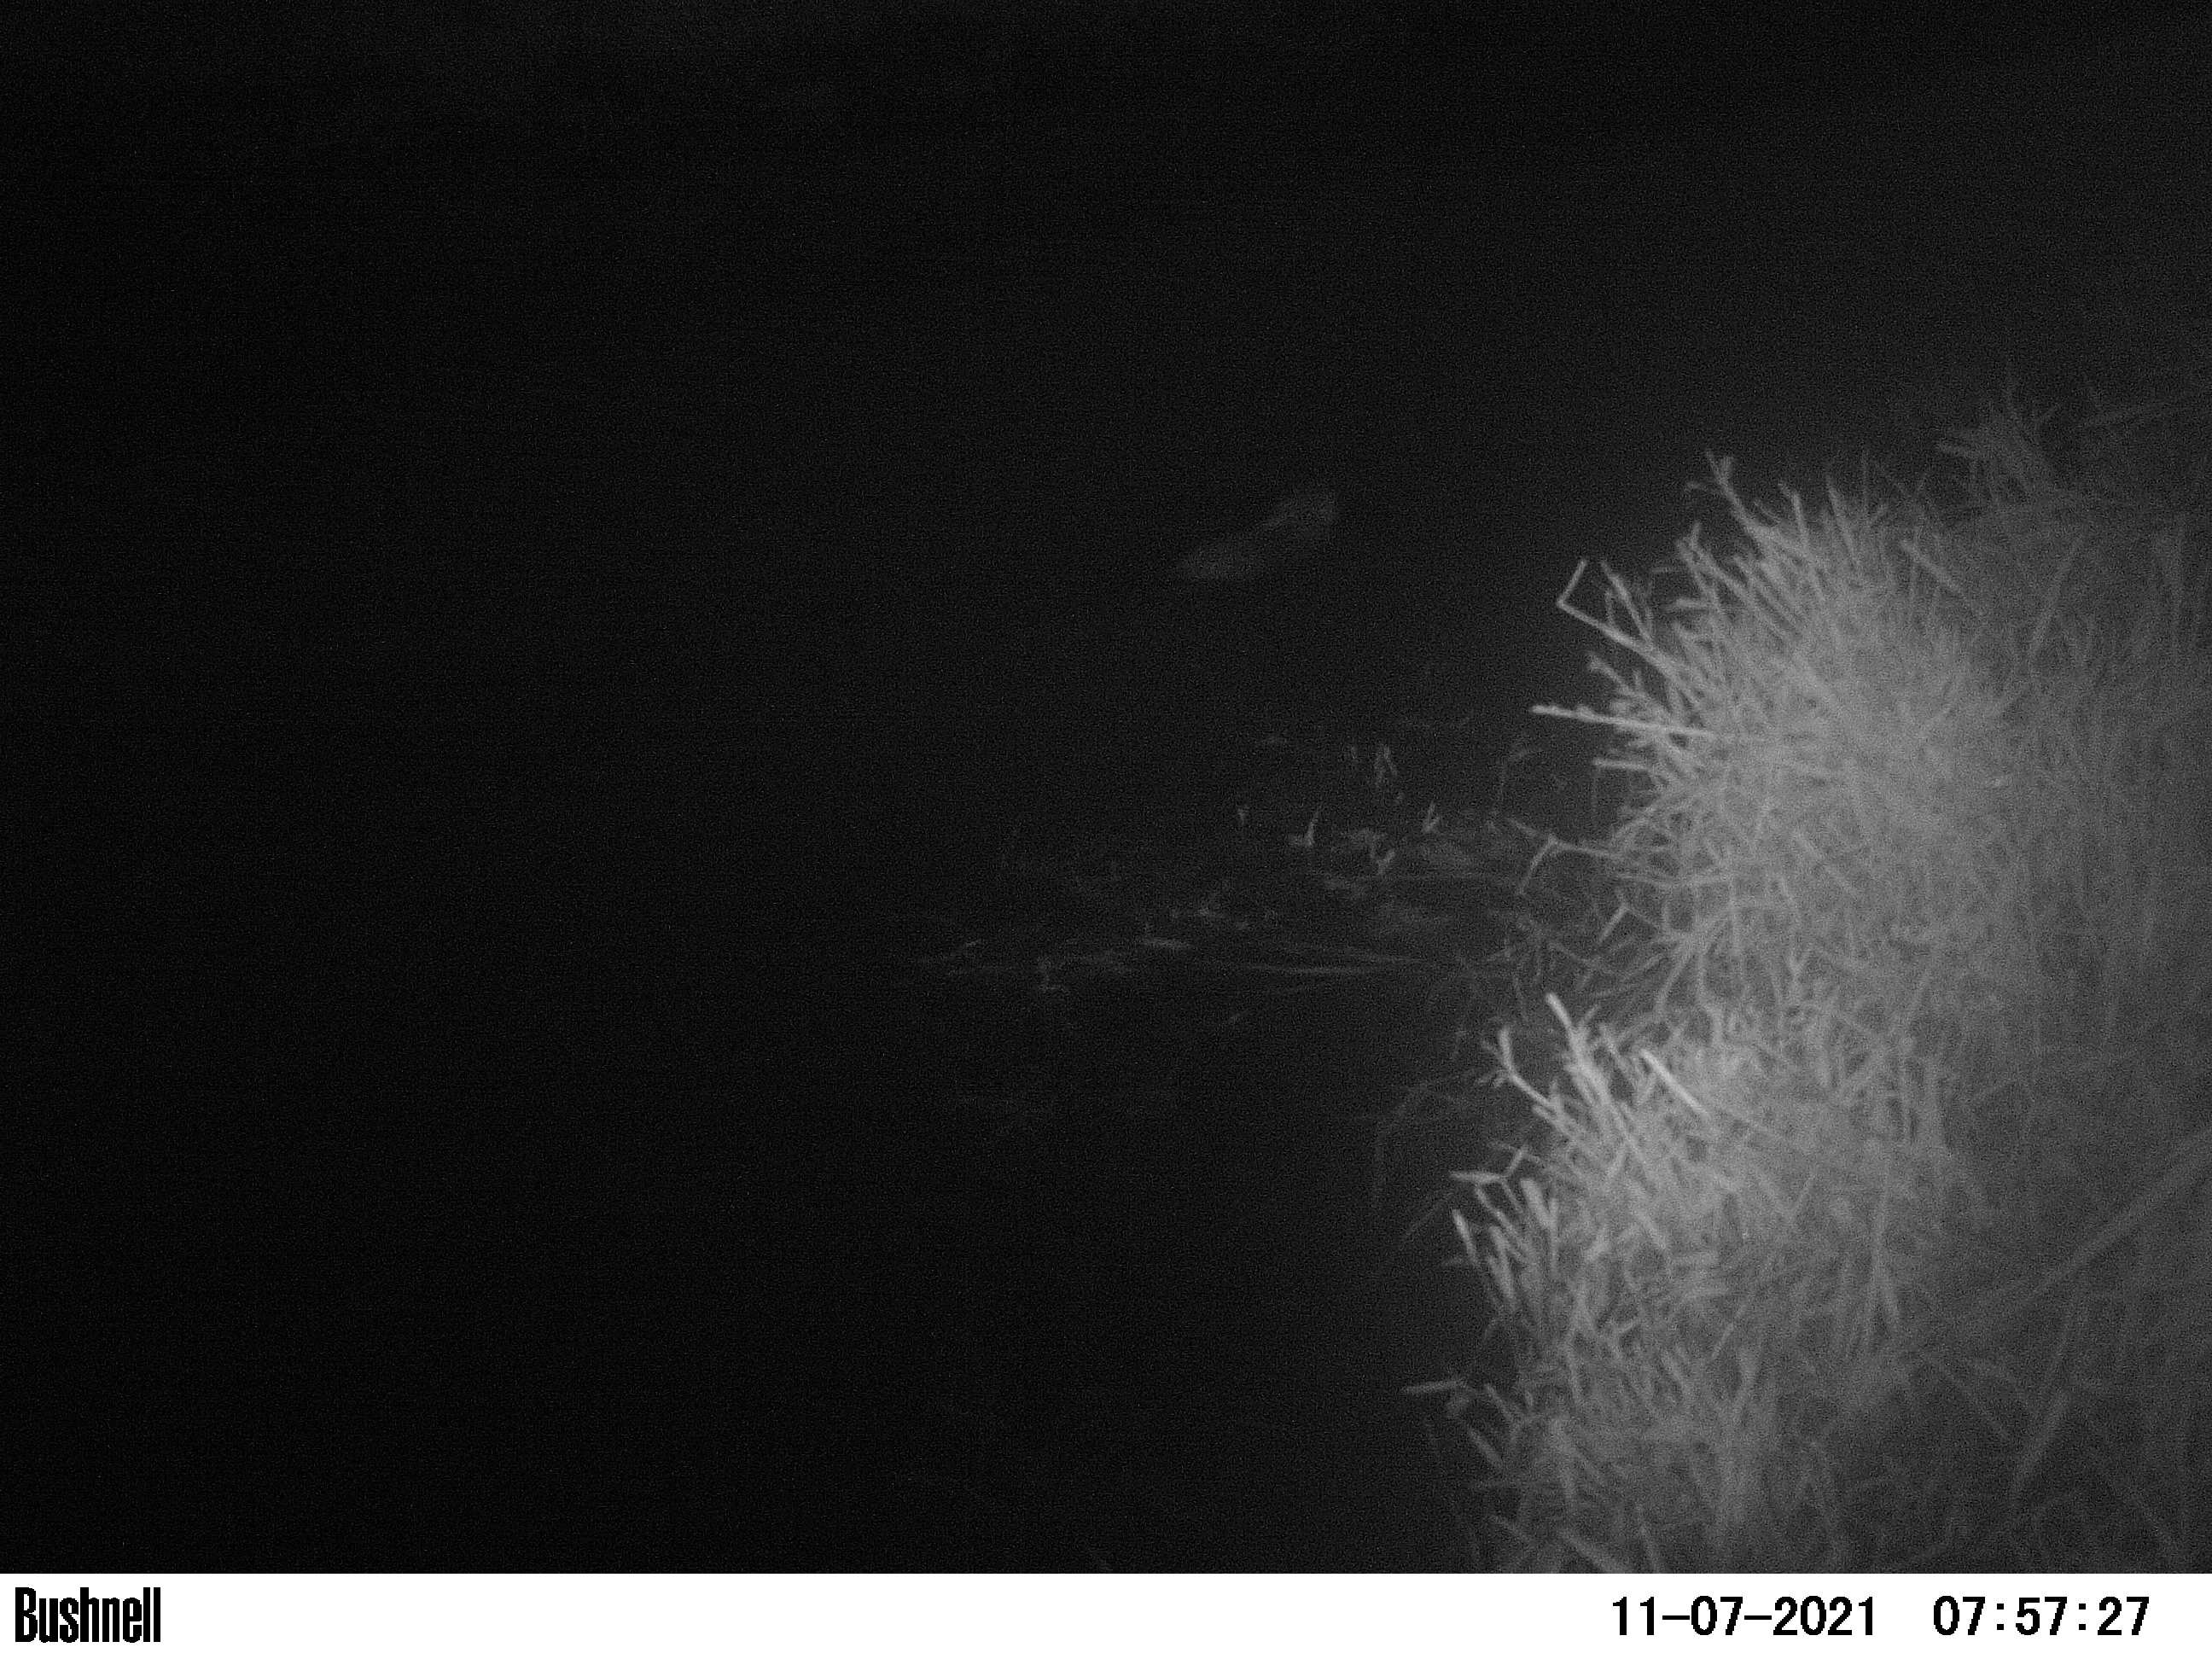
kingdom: Animalia
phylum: Chordata
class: Mammalia
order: Rodentia
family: Muridae
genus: Rattus
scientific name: Rattus norvegicus
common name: Brown rat
